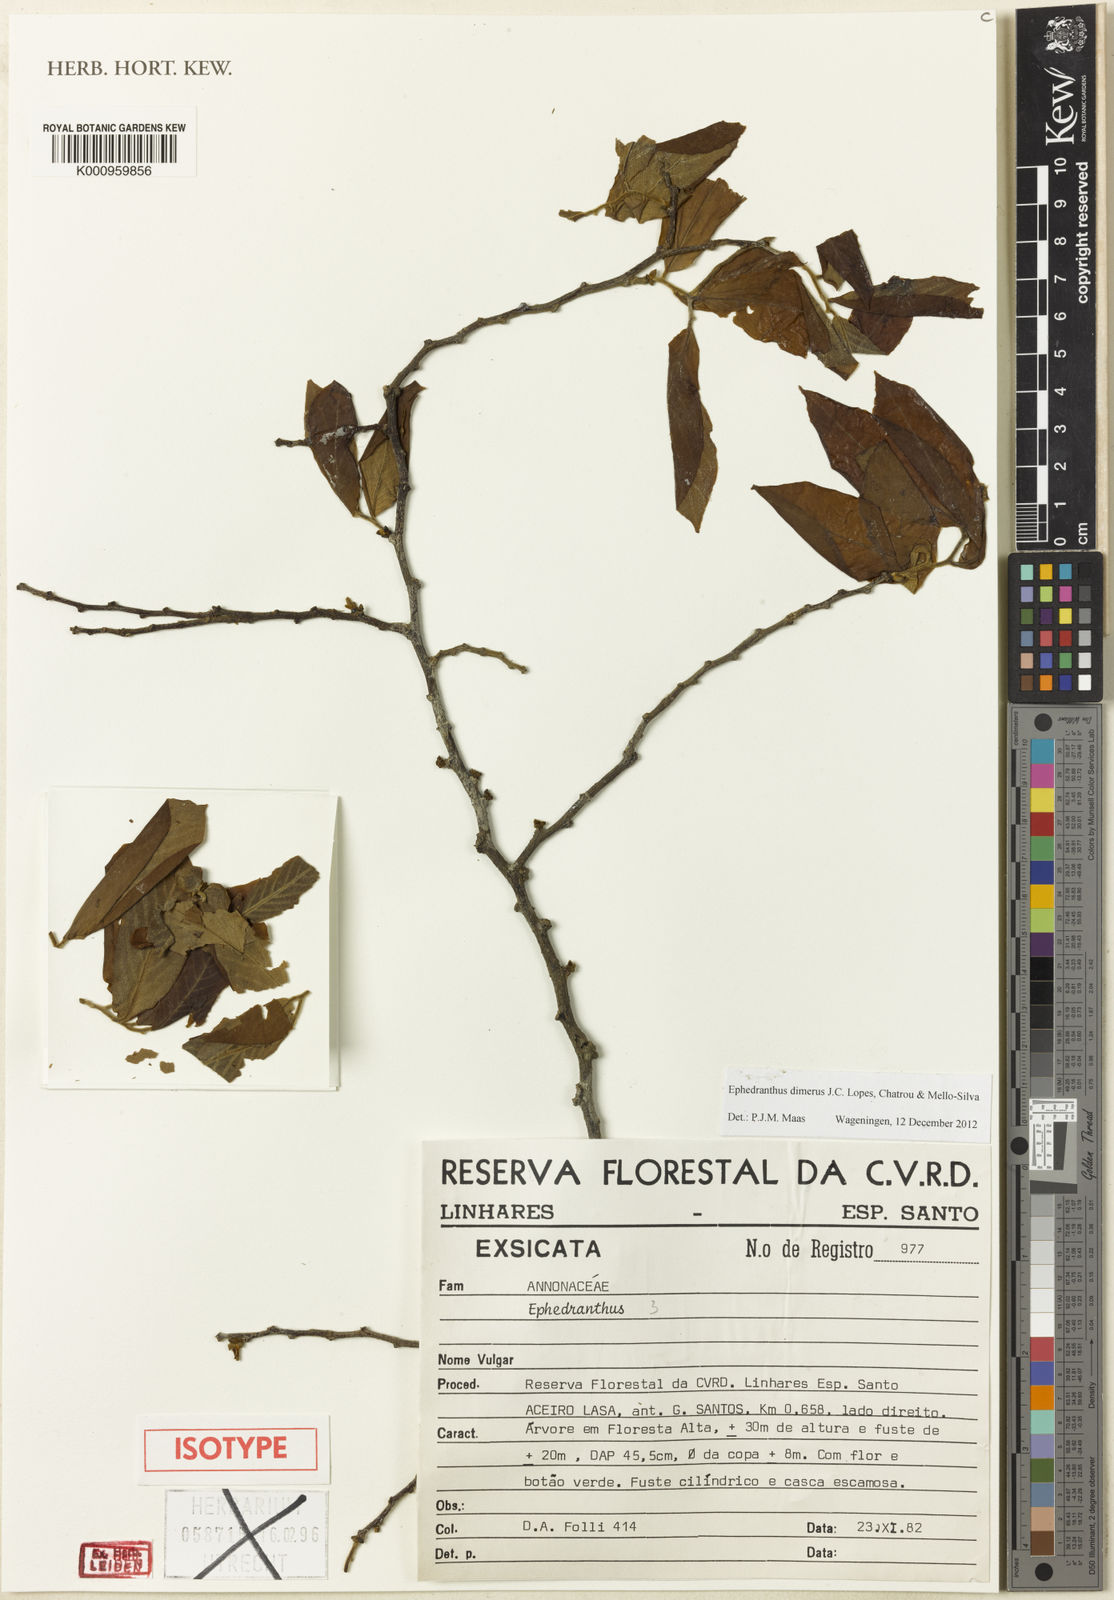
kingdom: Plantae
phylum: Tracheophyta
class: Magnoliopsida
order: Magnoliales
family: Annonaceae
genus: Ephedranthus
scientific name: Ephedranthus dimerus
